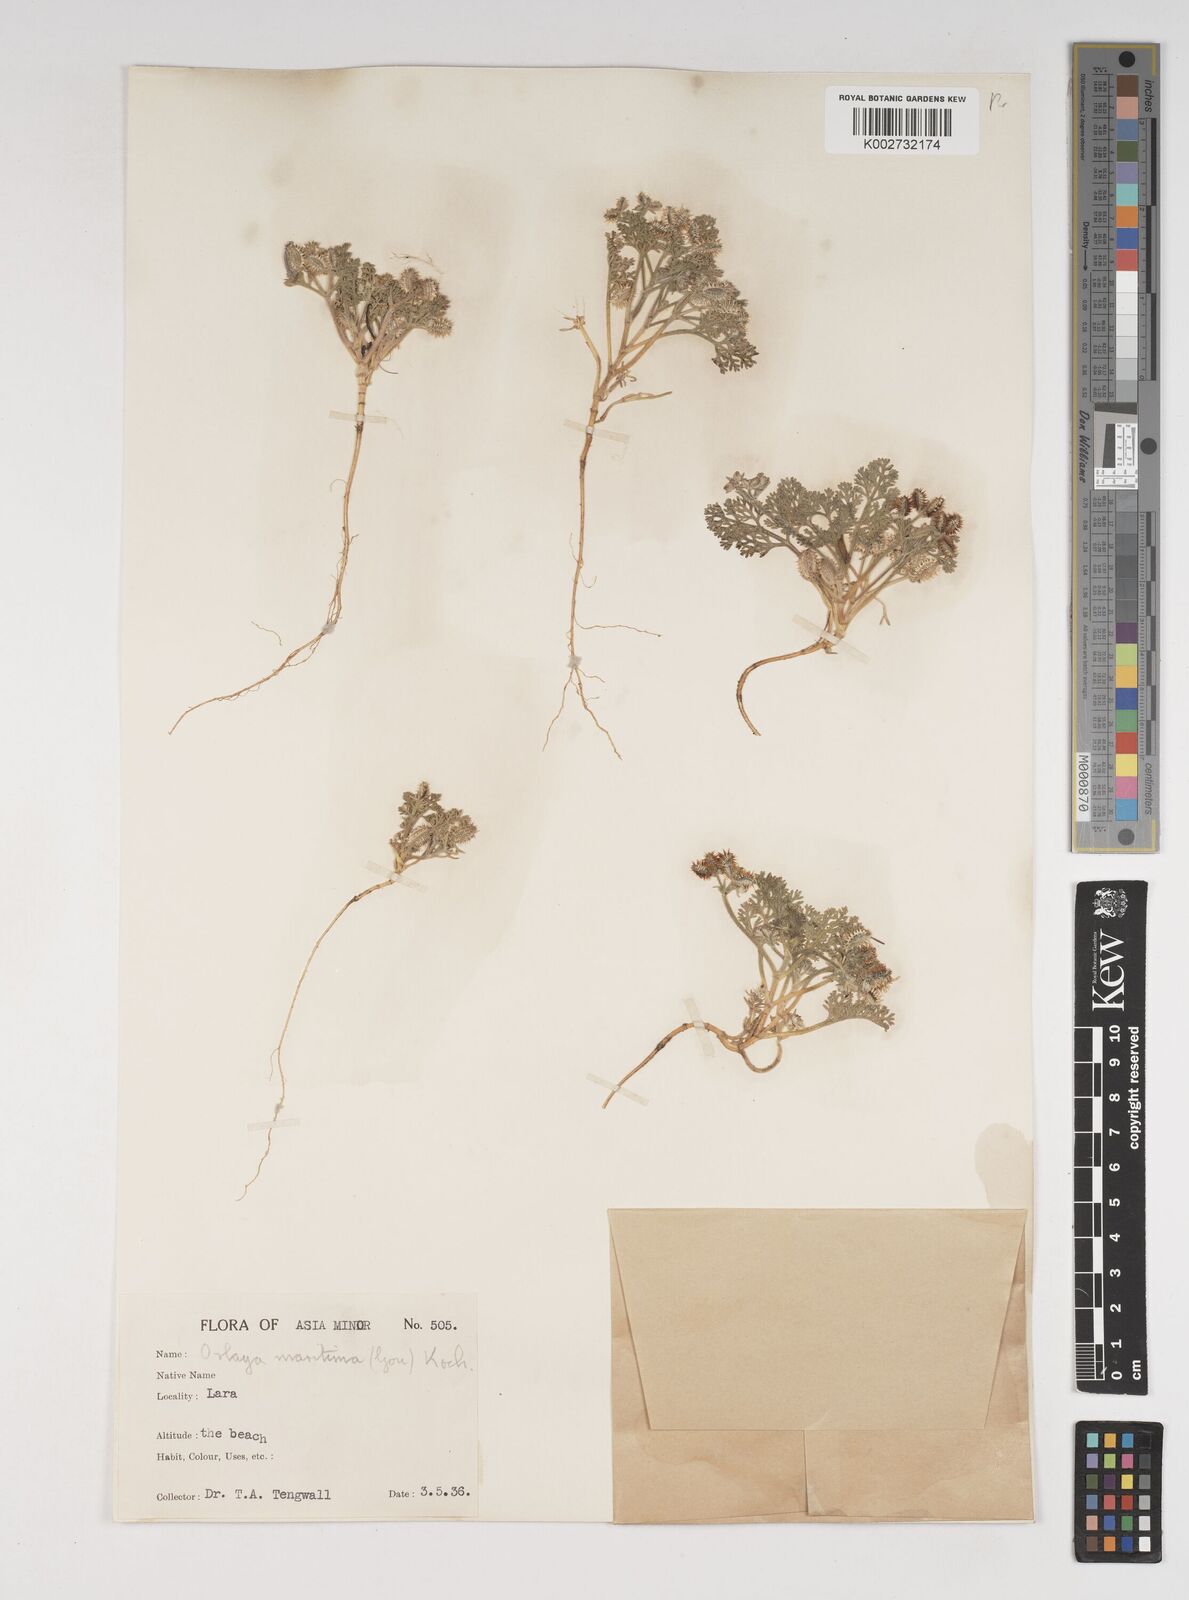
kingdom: Plantae
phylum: Tracheophyta
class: Magnoliopsida
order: Apiales
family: Apiaceae
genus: Daucus
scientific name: Daucus pumilus
